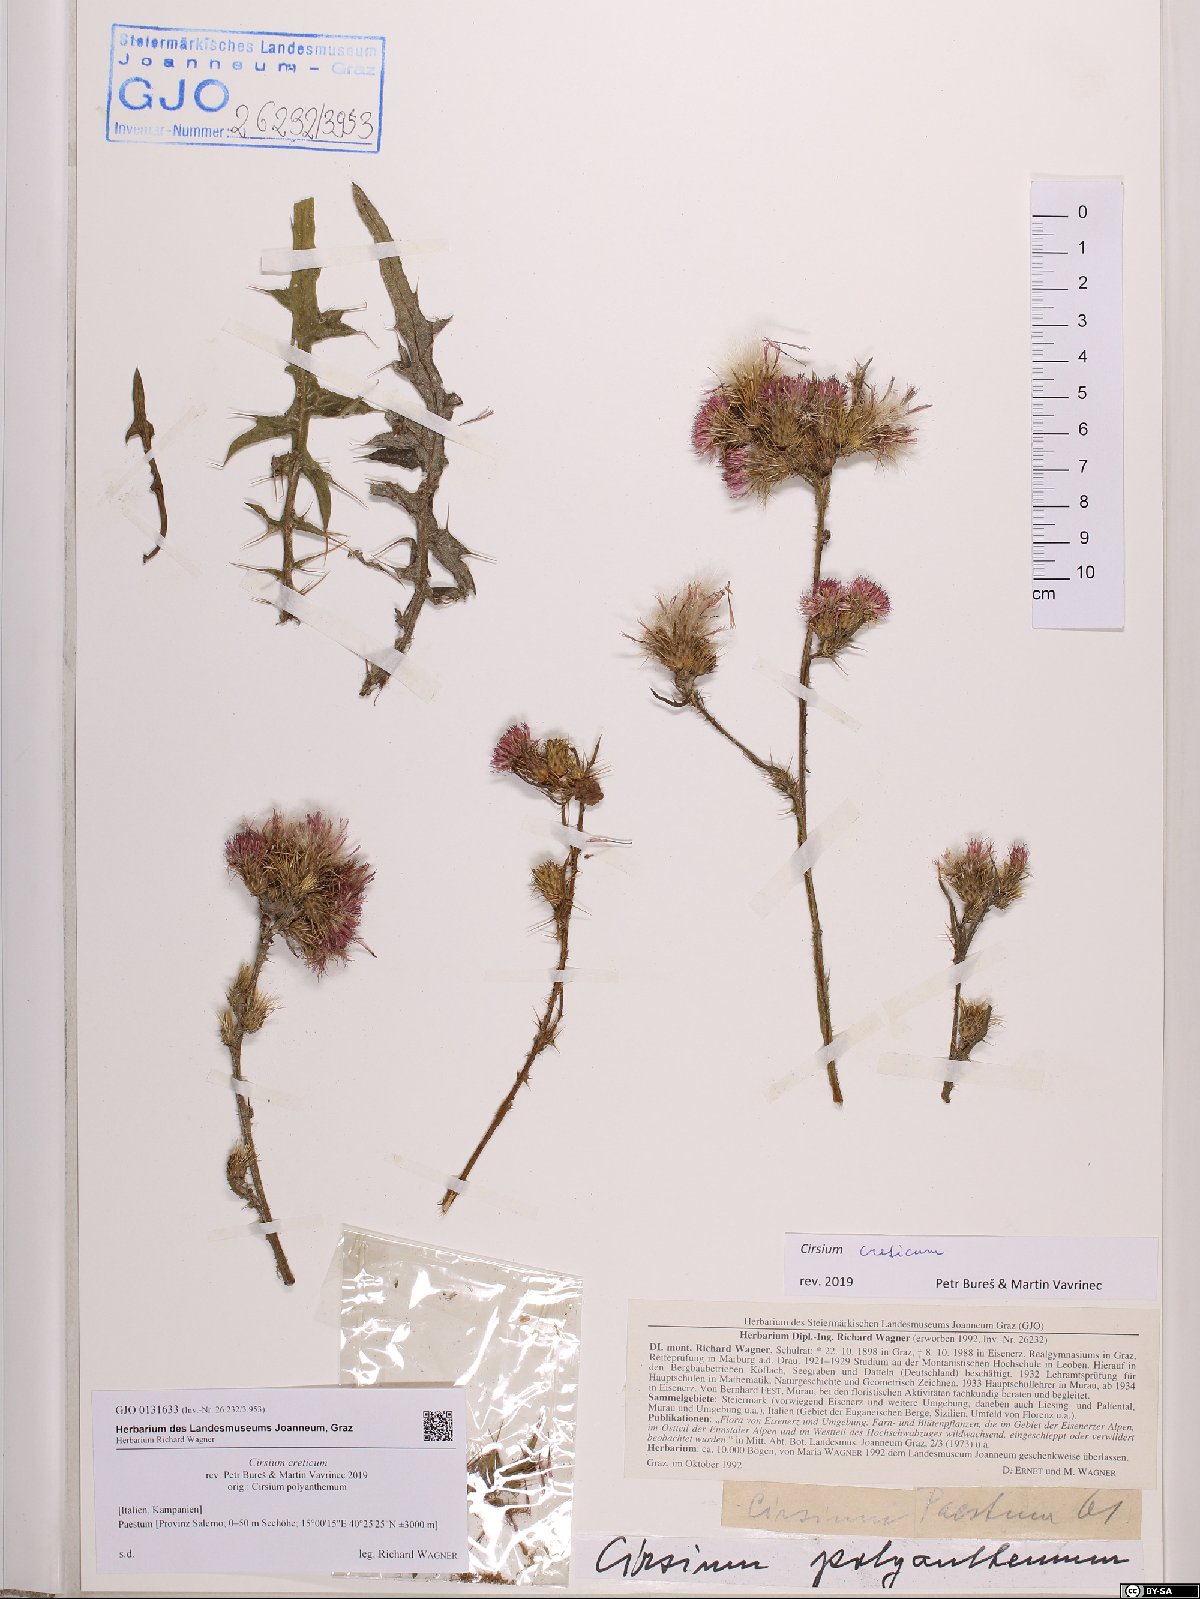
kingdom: Plantae
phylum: Tracheophyta
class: Magnoliopsida
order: Asterales
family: Asteraceae
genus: Cirsium
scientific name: Cirsium creticum
